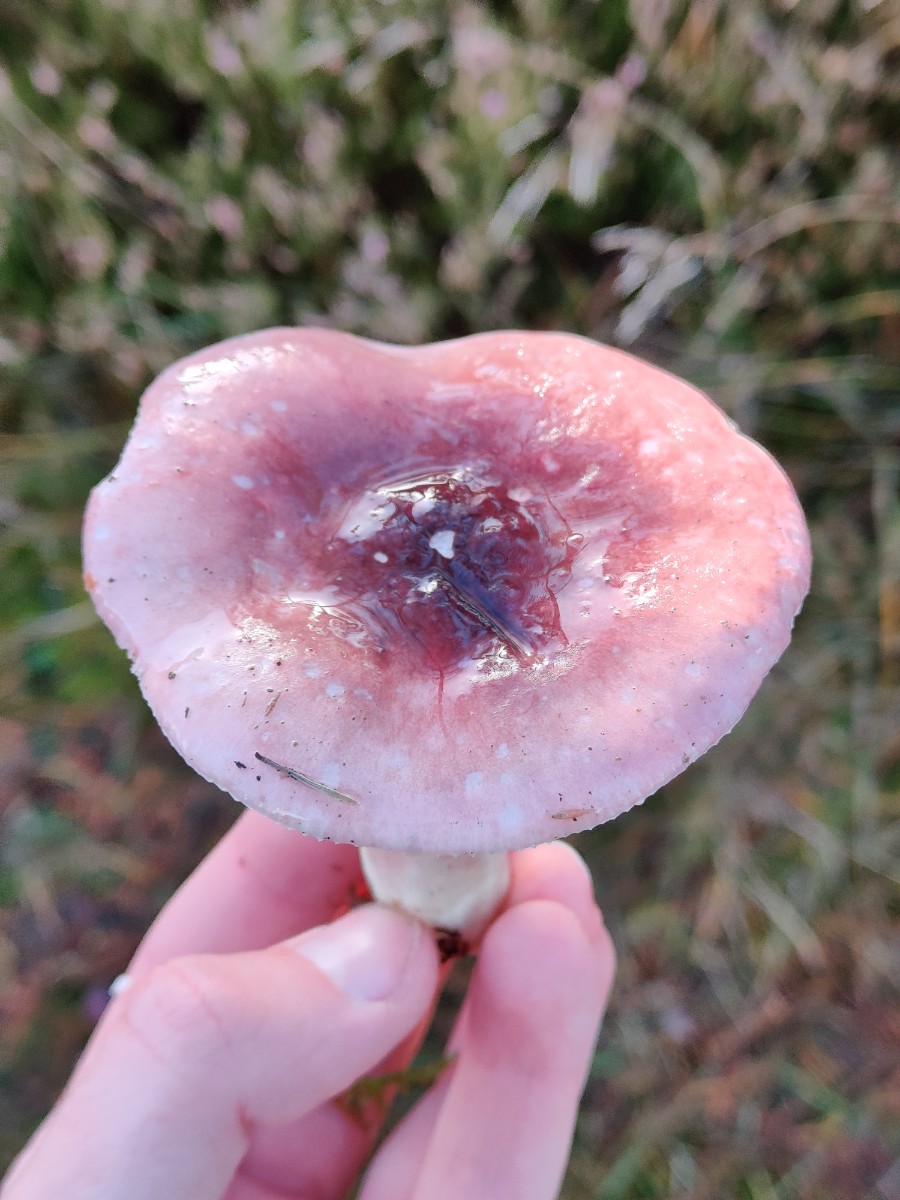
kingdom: Fungi
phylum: Basidiomycota
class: Agaricomycetes
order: Russulales
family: Russulaceae
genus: Russula
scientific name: Russula sardonia
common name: citronbladet skørhat
